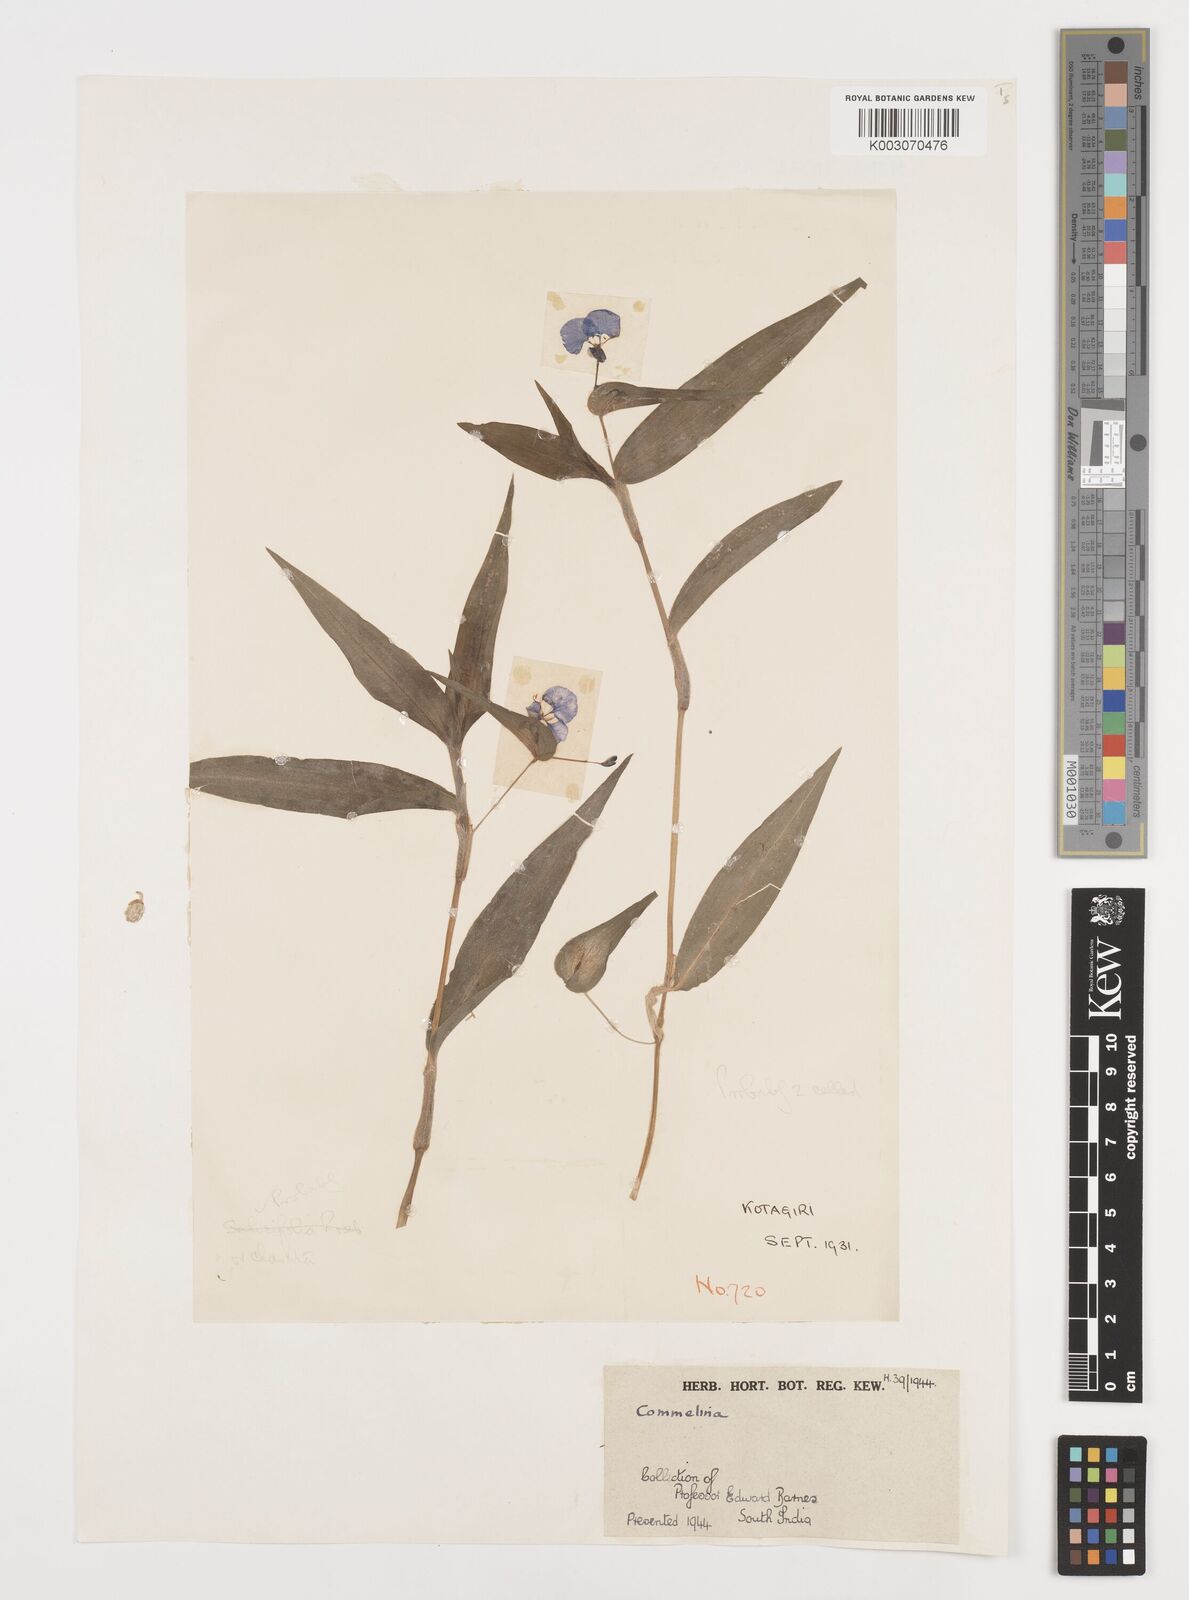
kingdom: Plantae
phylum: Tracheophyta
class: Liliopsida
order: Commelinales
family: Commelinaceae
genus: Commelina
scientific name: Commelina
